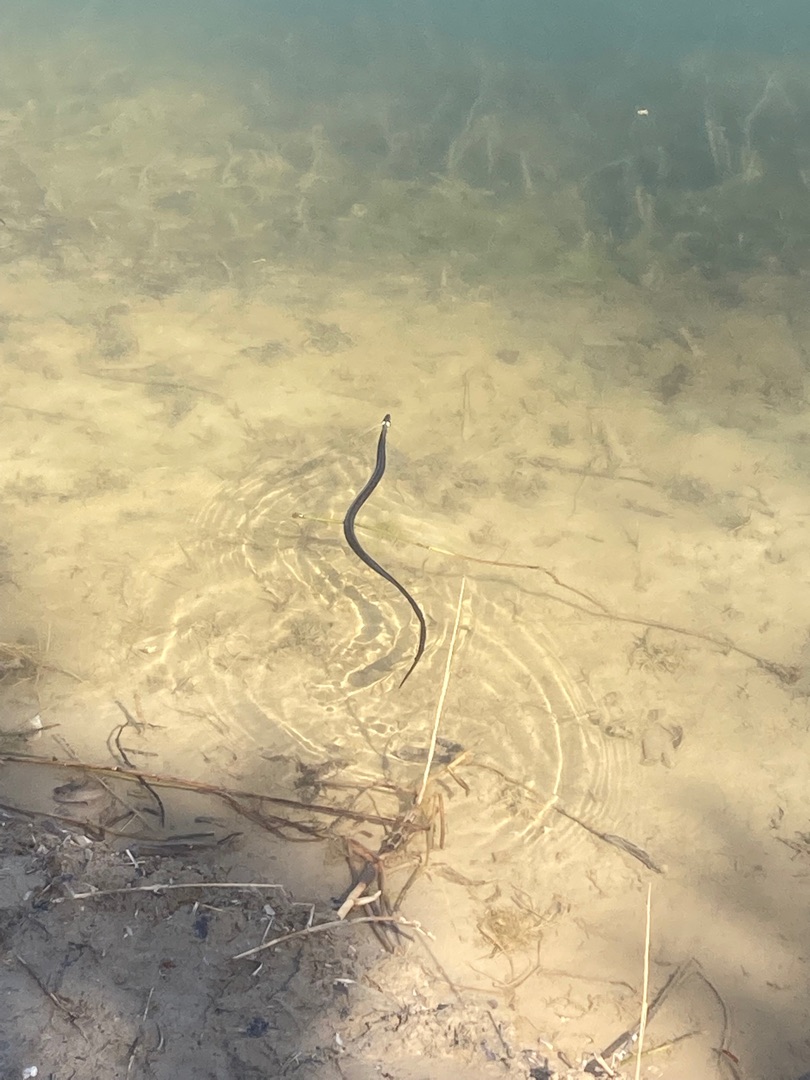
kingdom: Animalia
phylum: Chordata
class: Squamata
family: Colubridae
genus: Natrix
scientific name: Natrix natrix
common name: Snog
